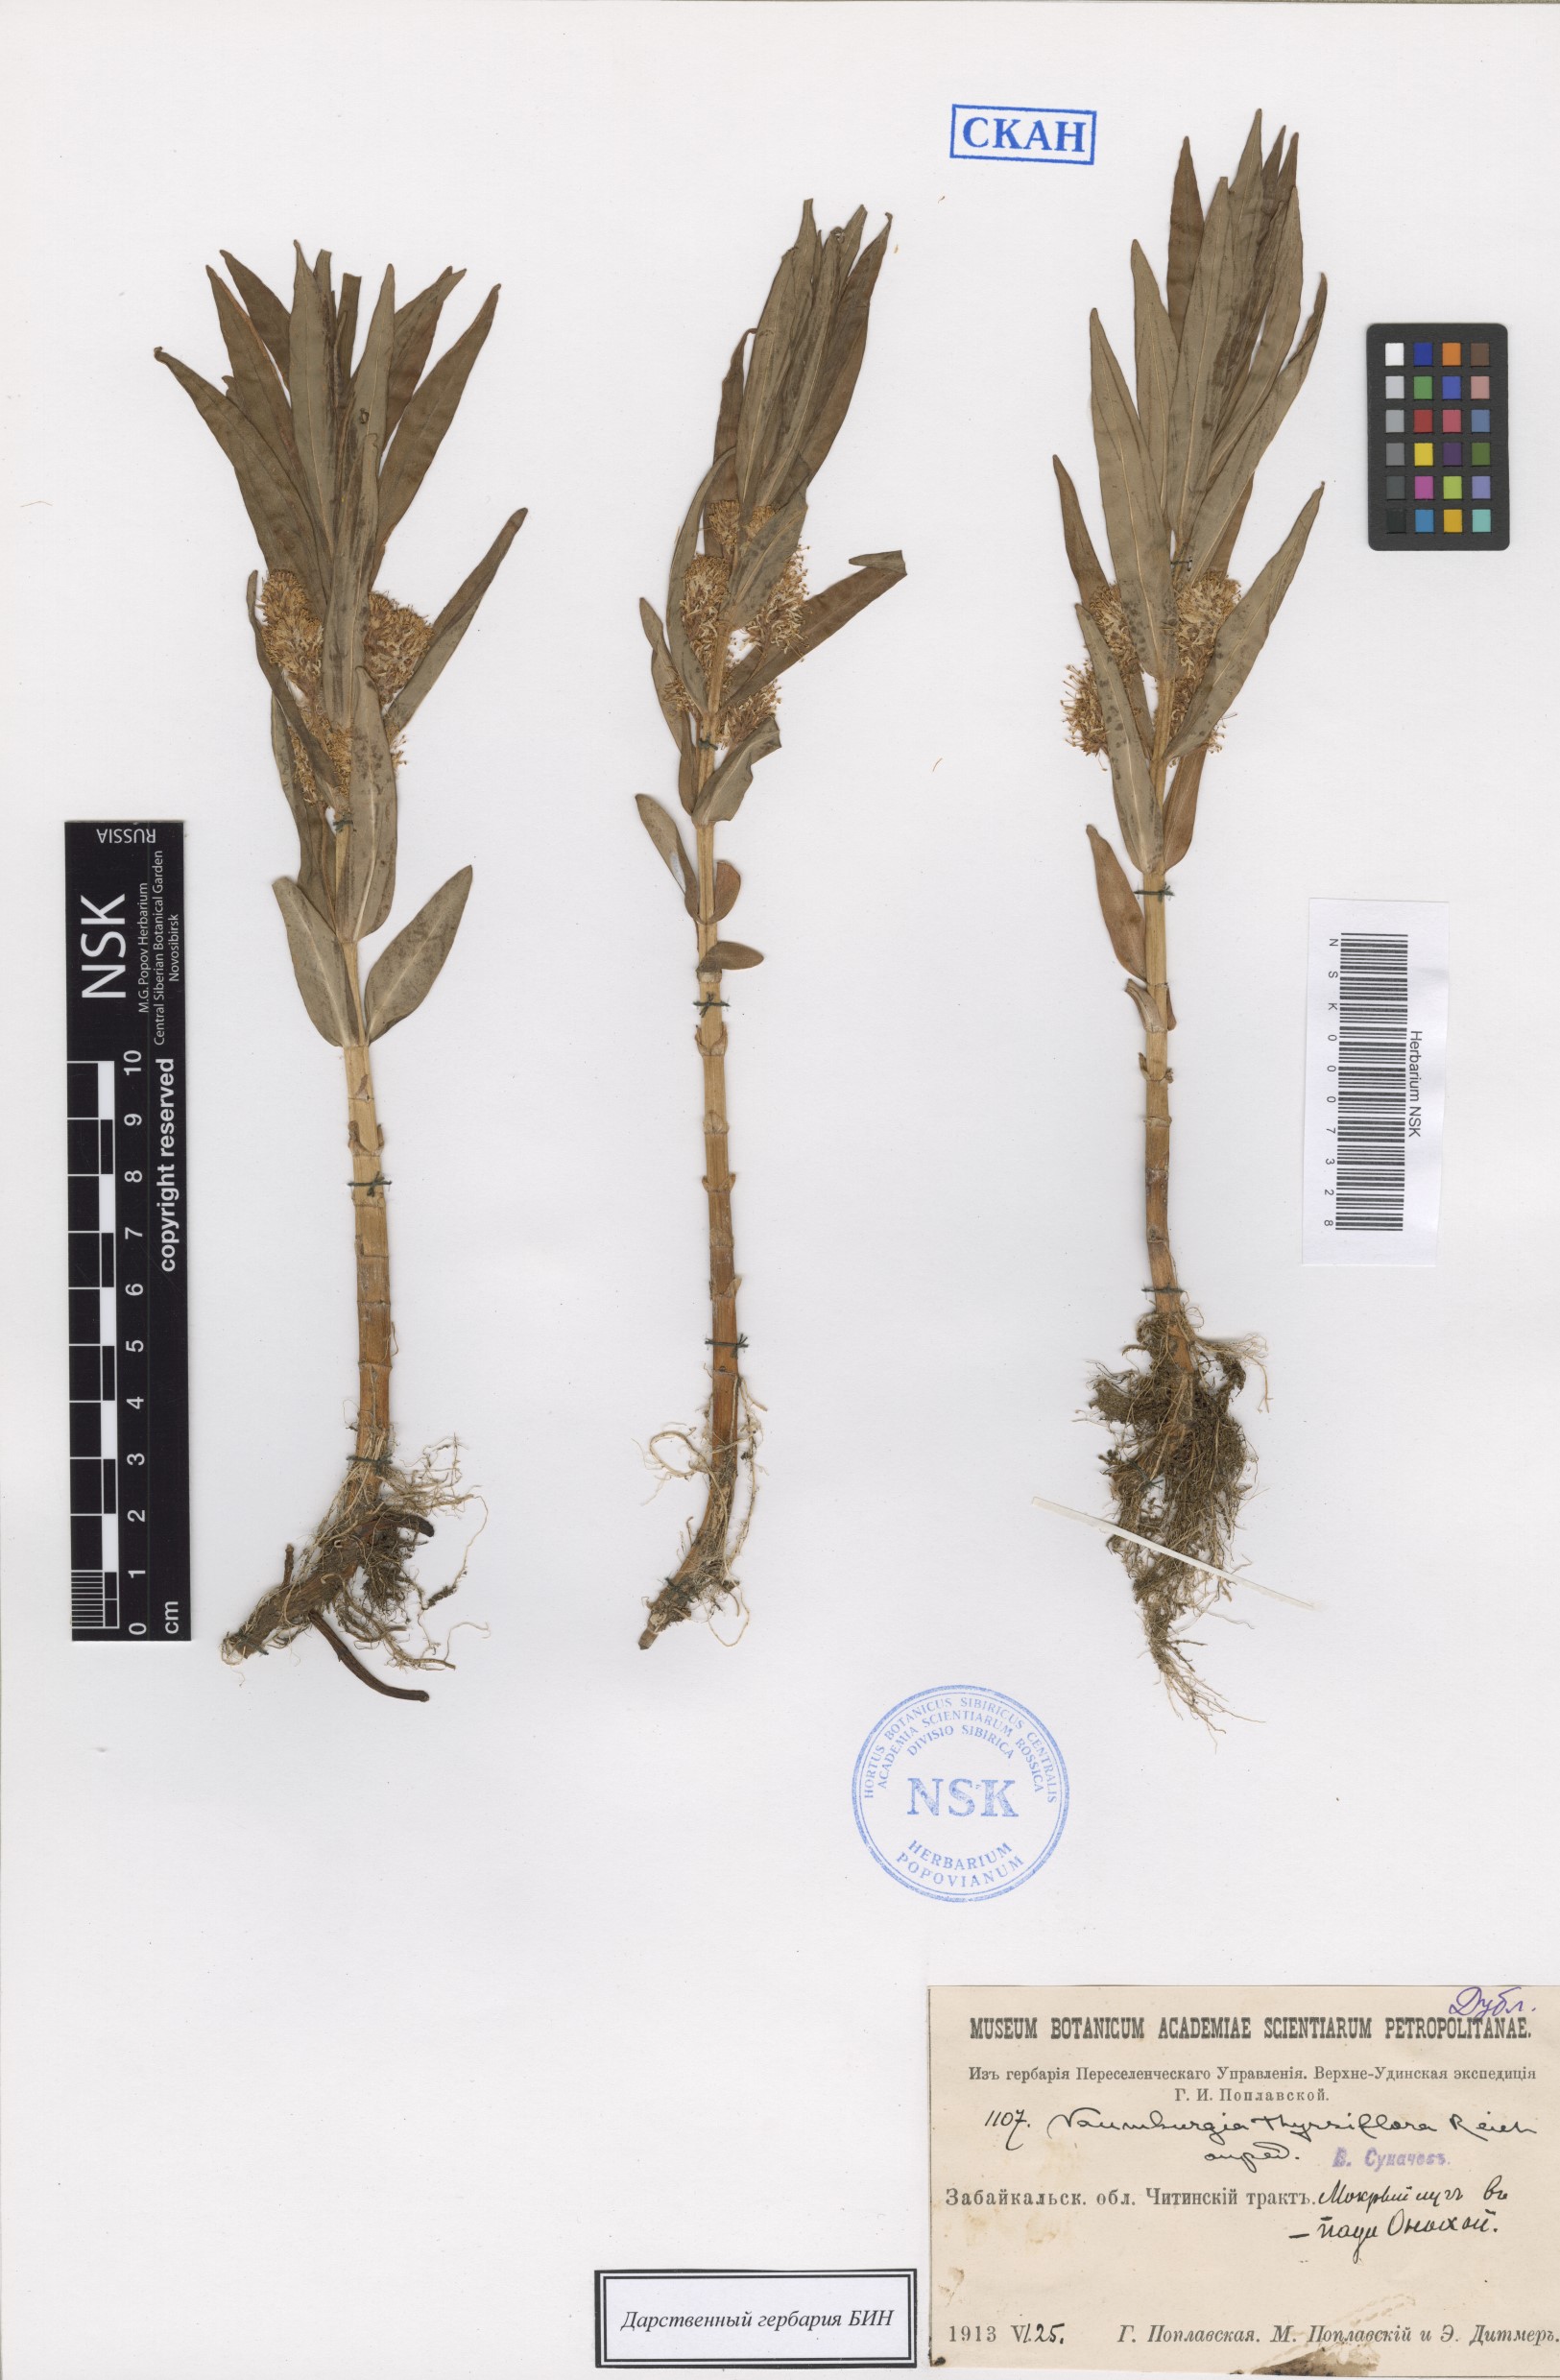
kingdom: Plantae
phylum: Tracheophyta
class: Magnoliopsida
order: Ericales
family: Primulaceae
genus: Lysimachia
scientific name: Lysimachia thyrsiflora
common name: Tufted loosestrife
